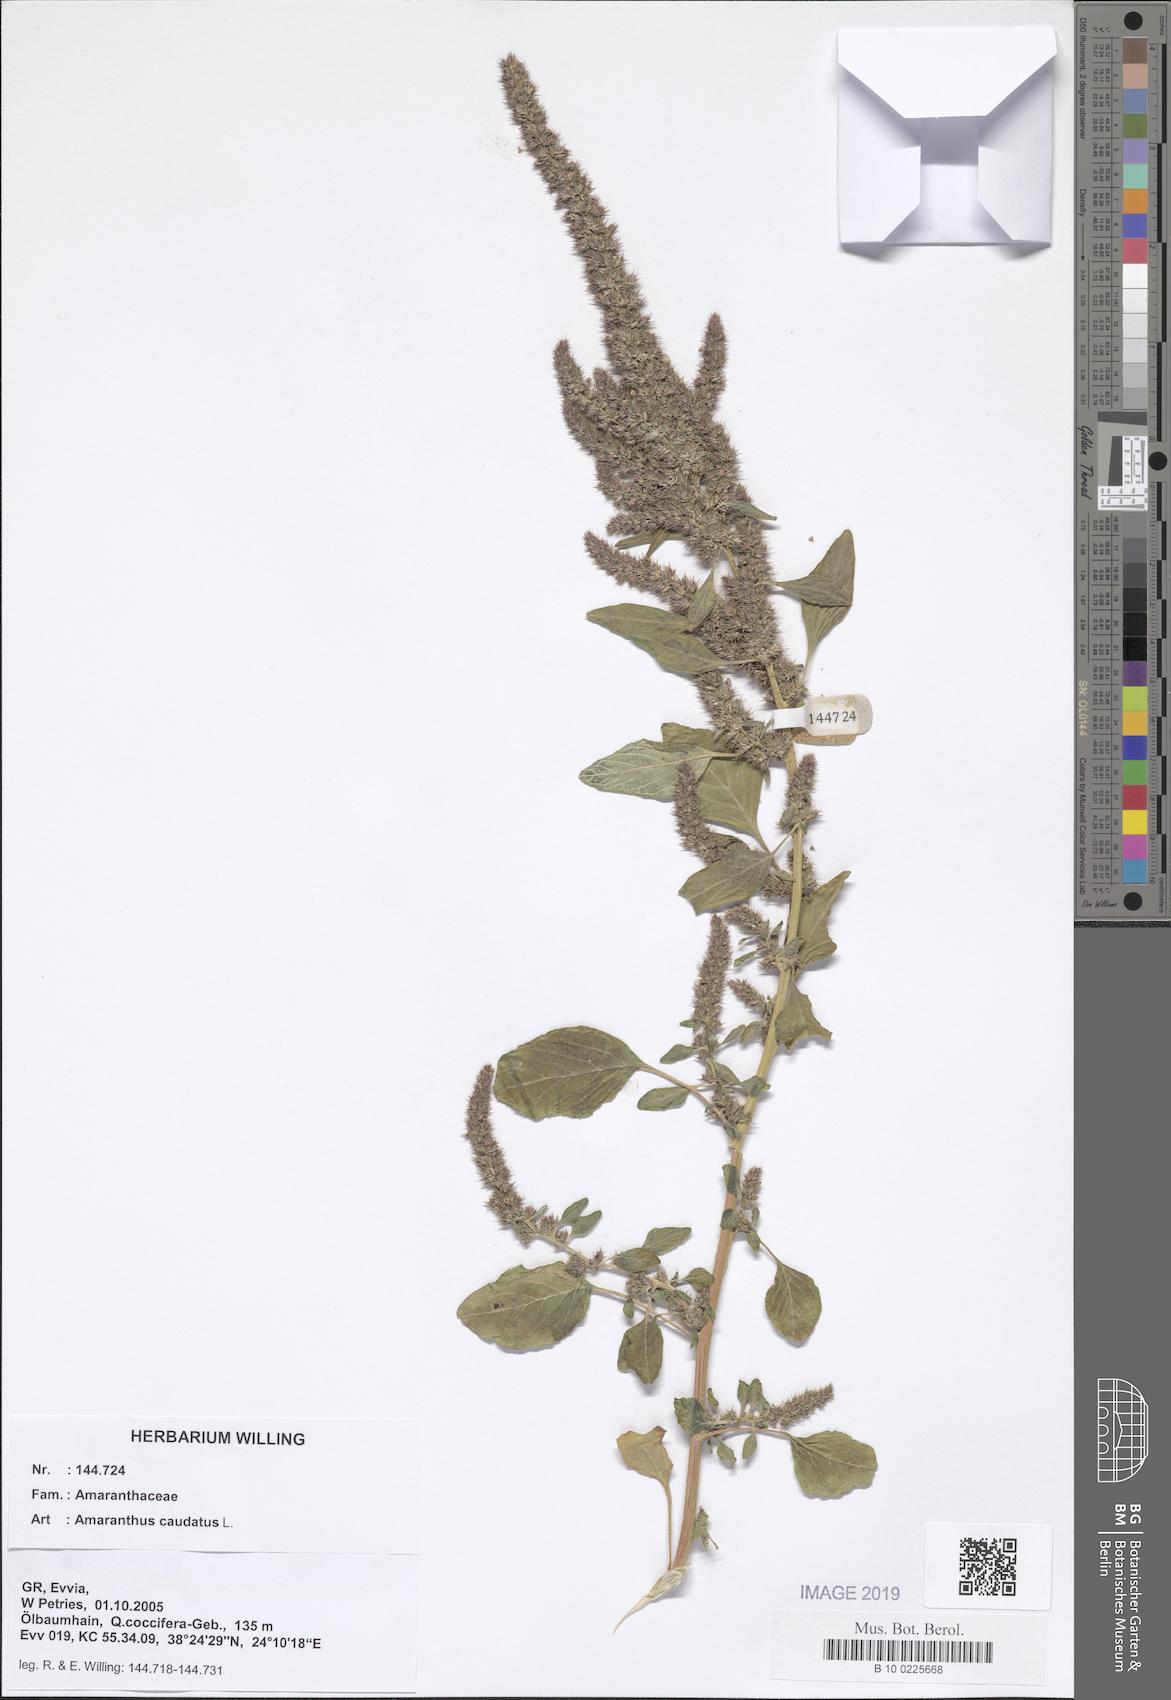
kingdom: Plantae
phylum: Tracheophyta
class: Magnoliopsida
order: Caryophyllales
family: Amaranthaceae
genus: Amaranthus
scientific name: Amaranthus caudatus
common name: Love-lies-bleeding
